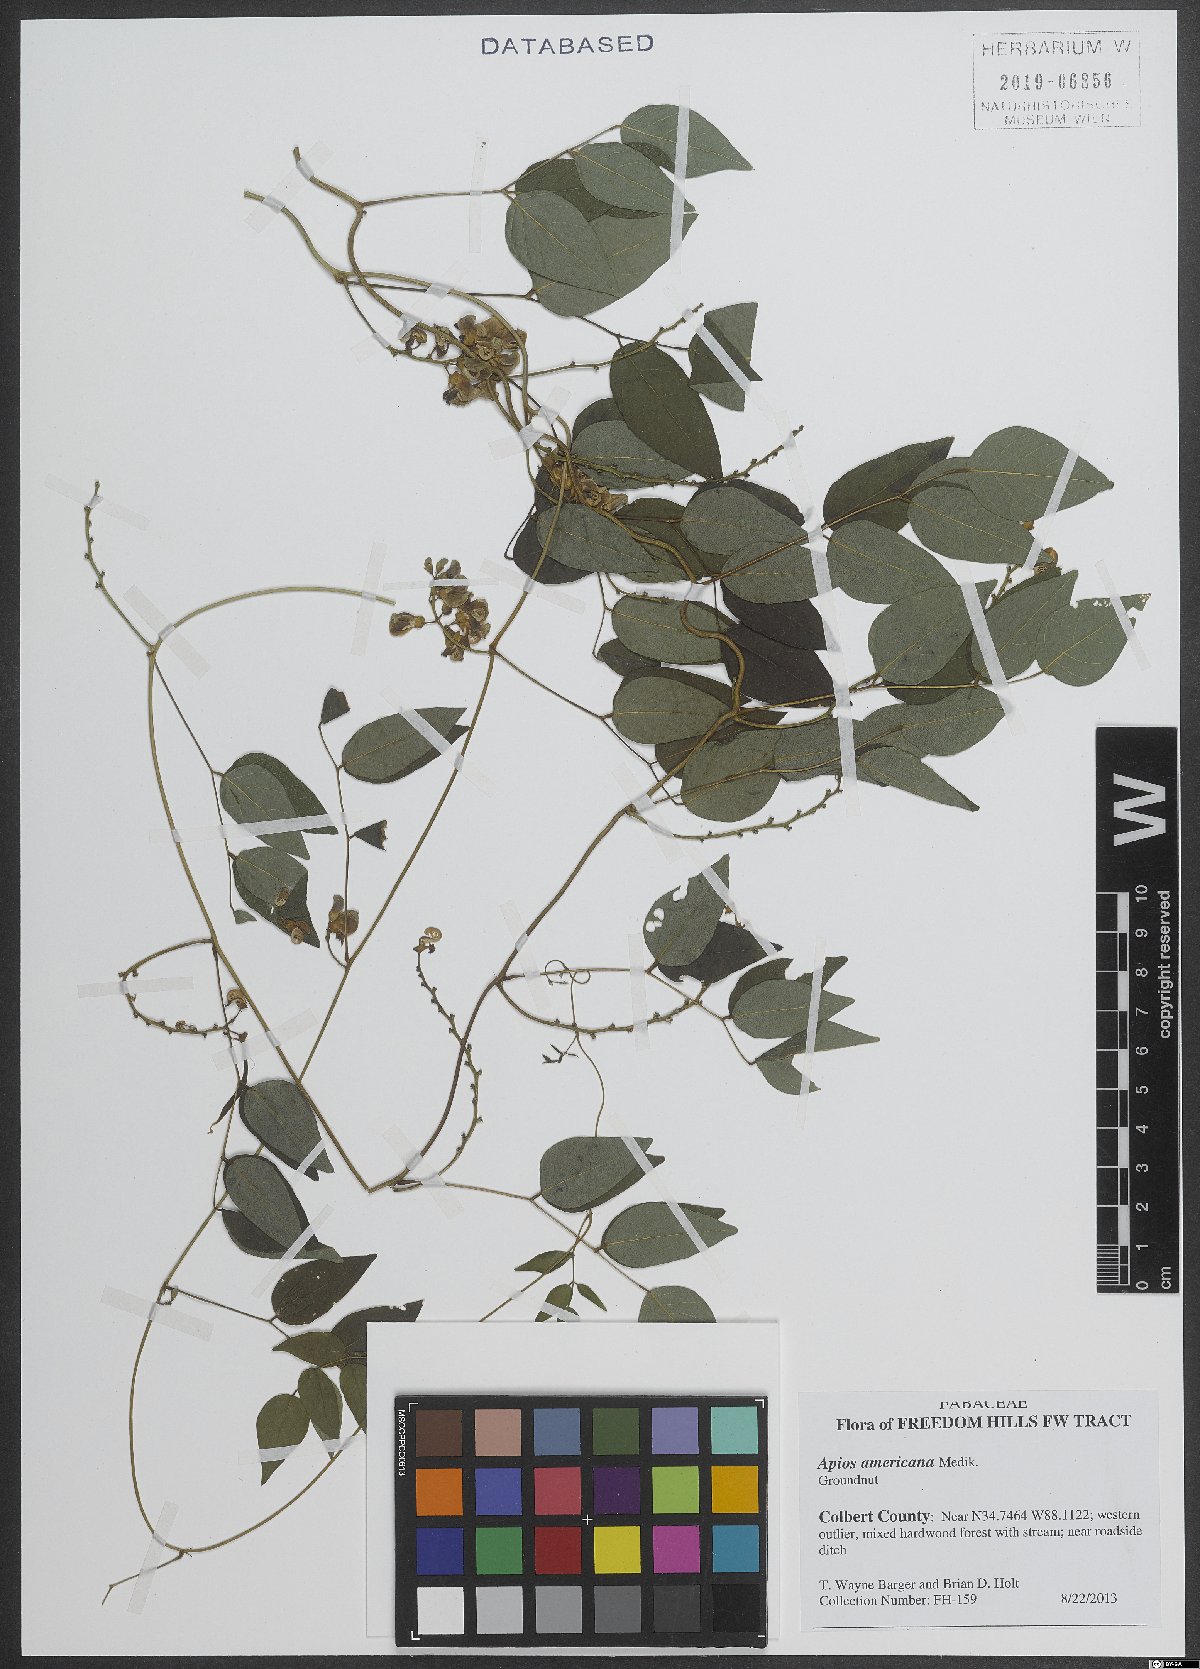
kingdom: Plantae
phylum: Tracheophyta
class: Magnoliopsida
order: Fabales
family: Fabaceae
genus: Apios
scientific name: Apios americana
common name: American potato-bean
